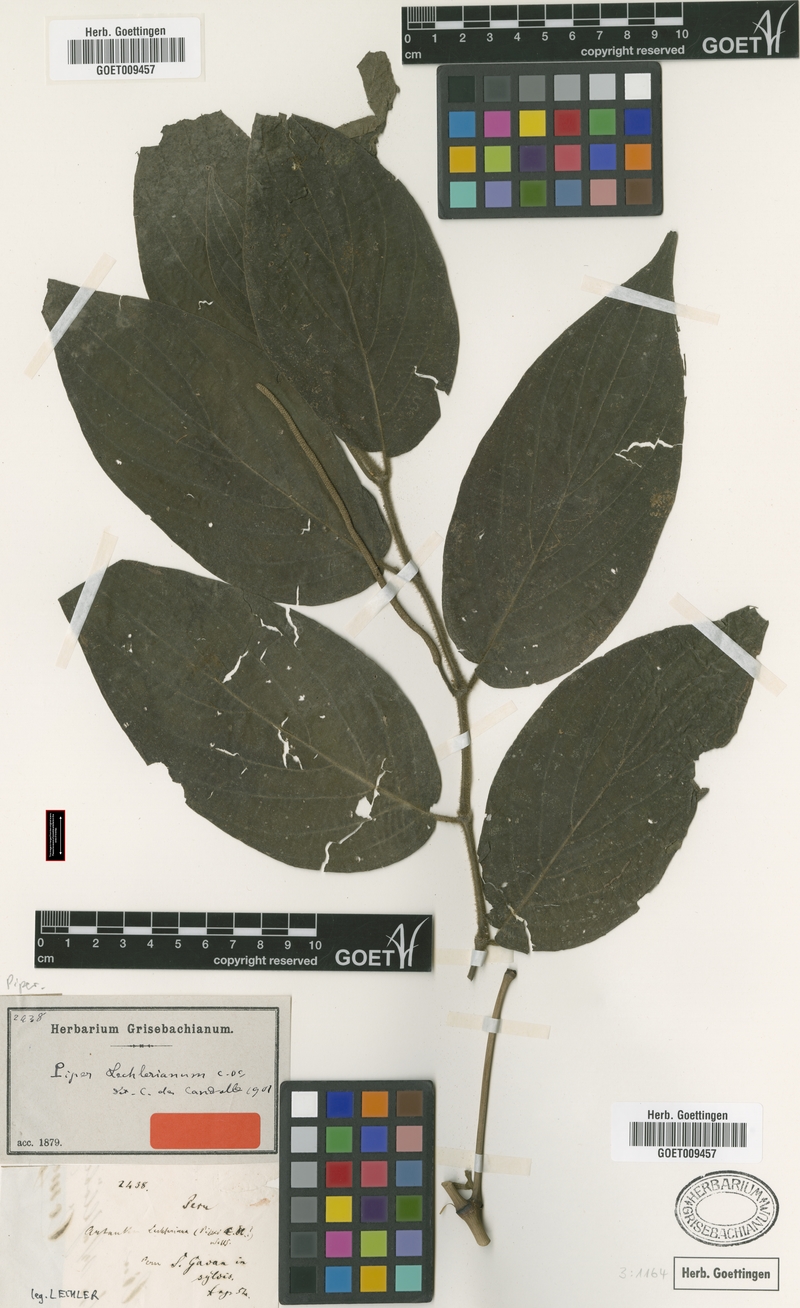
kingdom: Plantae
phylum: Tracheophyta
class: Magnoliopsida
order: Piperales
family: Piperaceae
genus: Piper
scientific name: Piper lechlerianum
